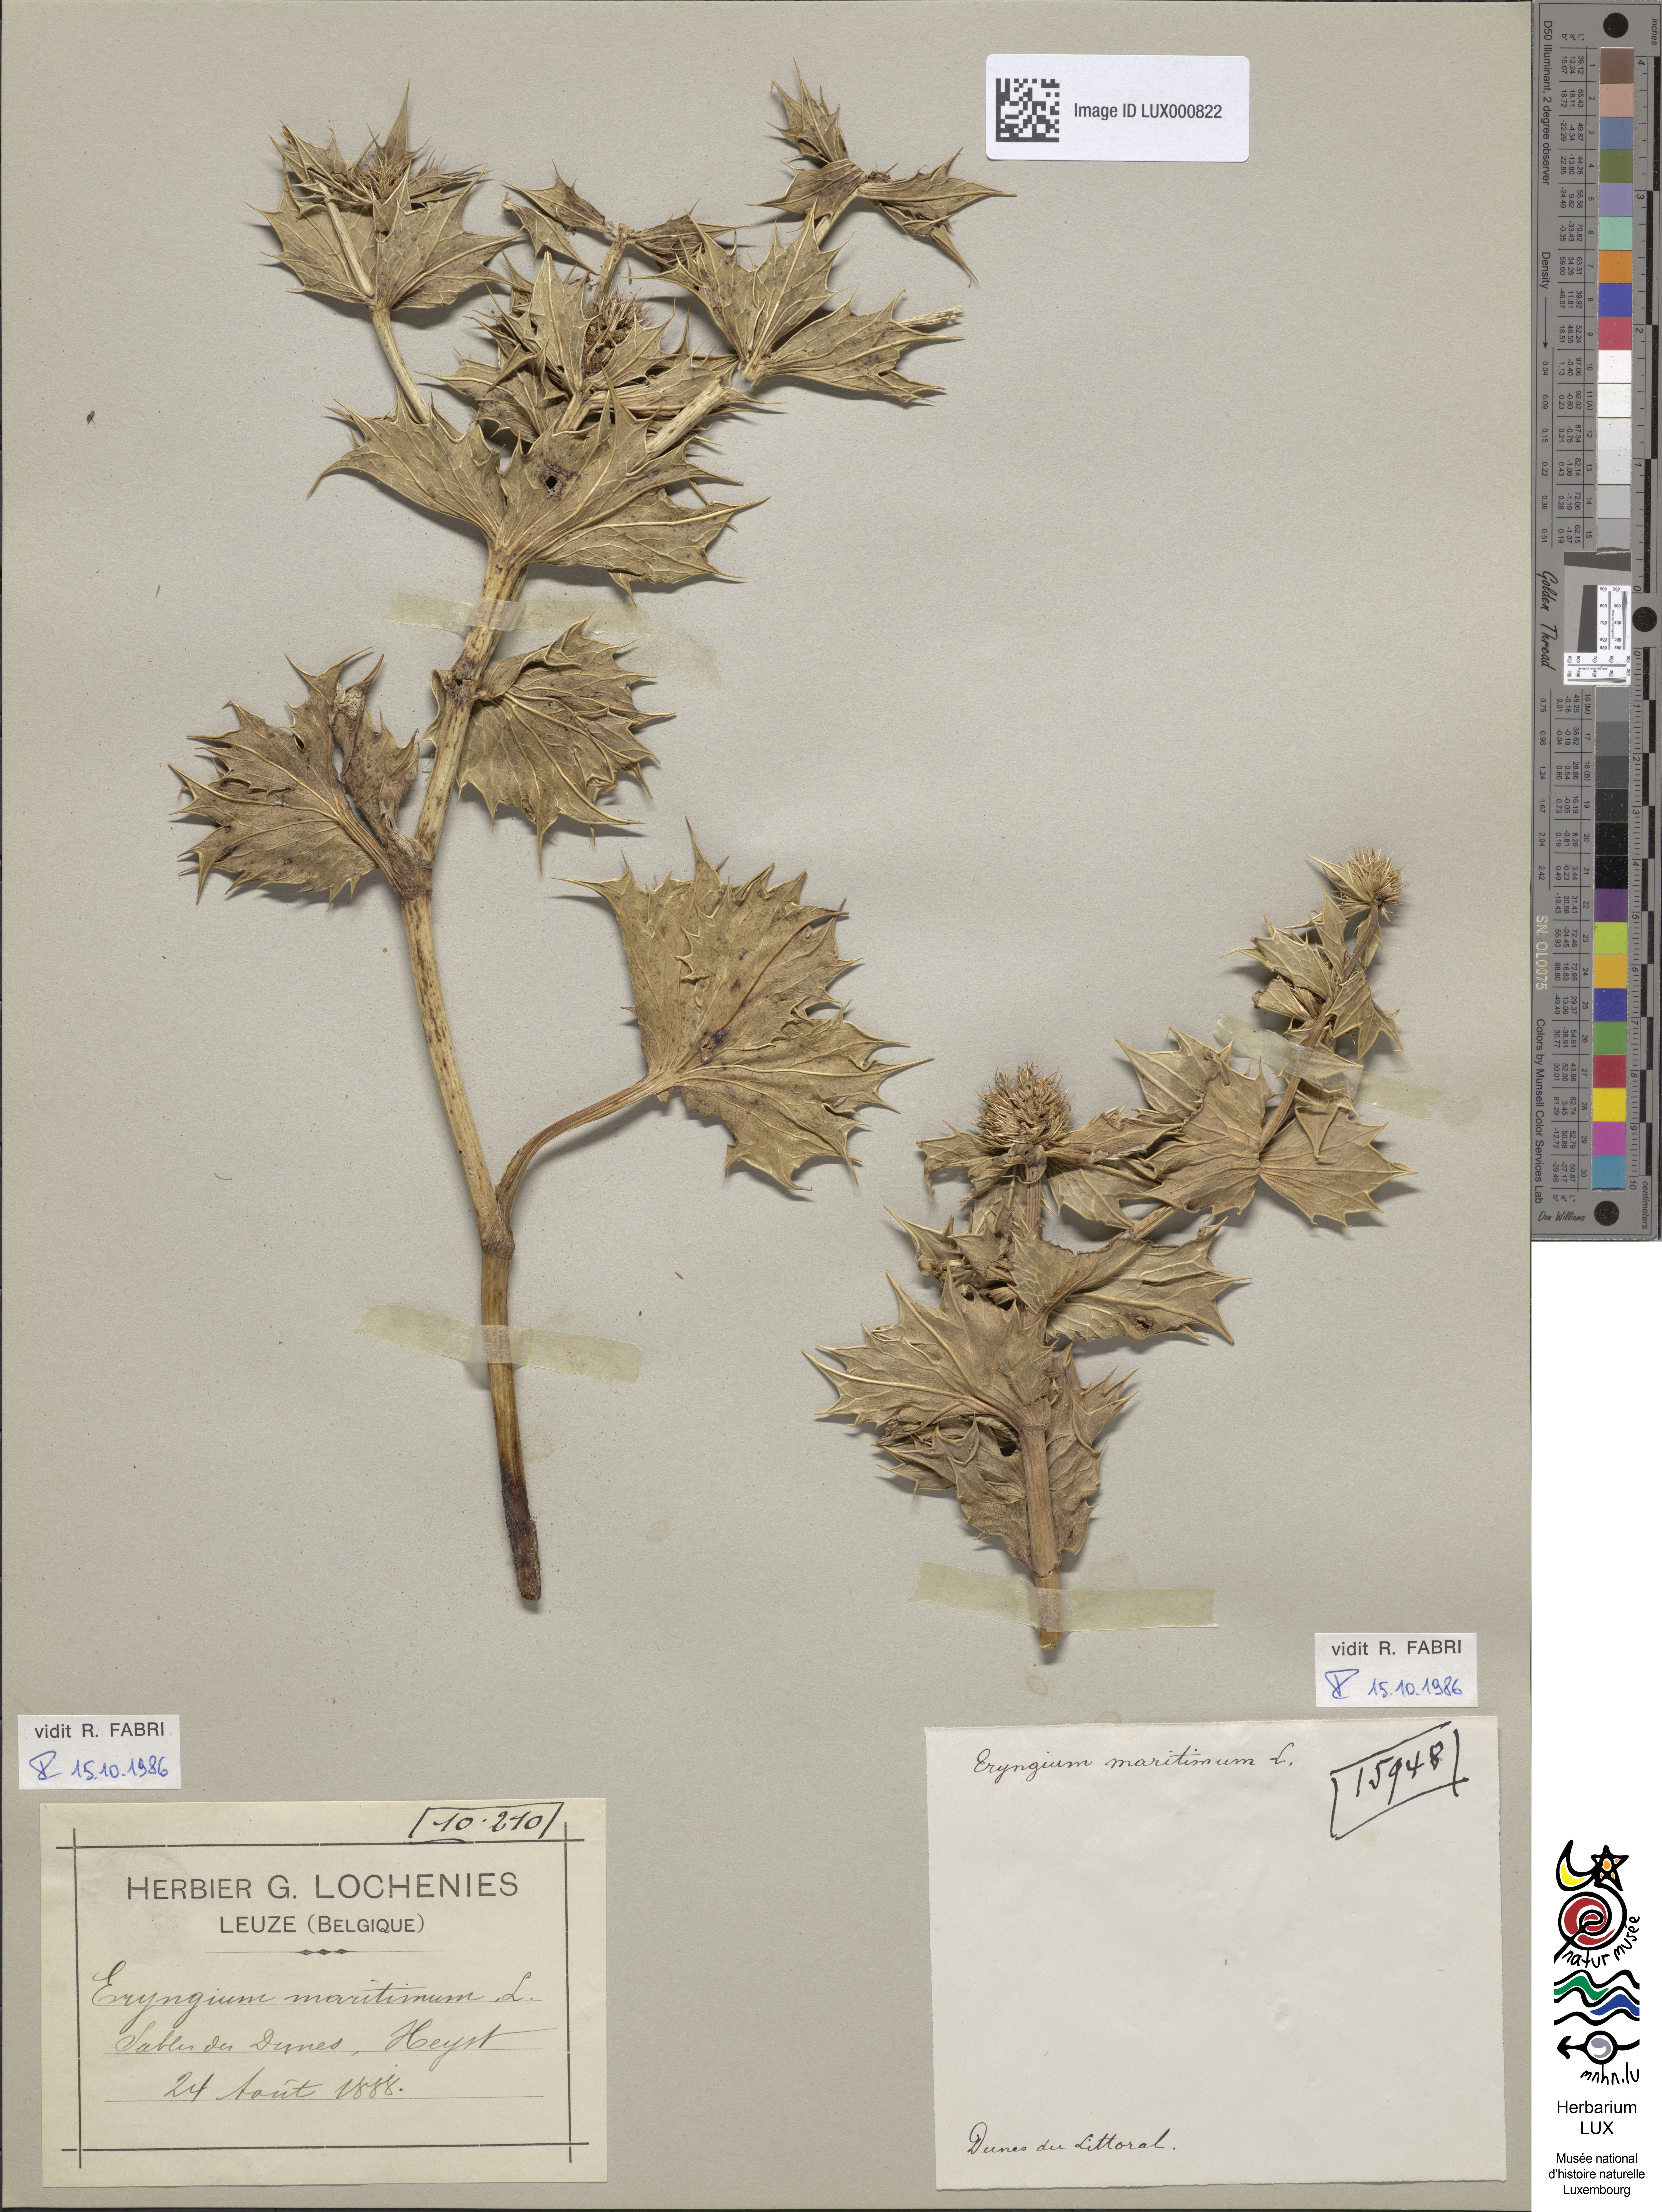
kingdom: Plantae
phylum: Tracheophyta
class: Magnoliopsida
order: Apiales
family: Apiaceae
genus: Eryngium
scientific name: Eryngium maritimum
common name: Sea-holly
